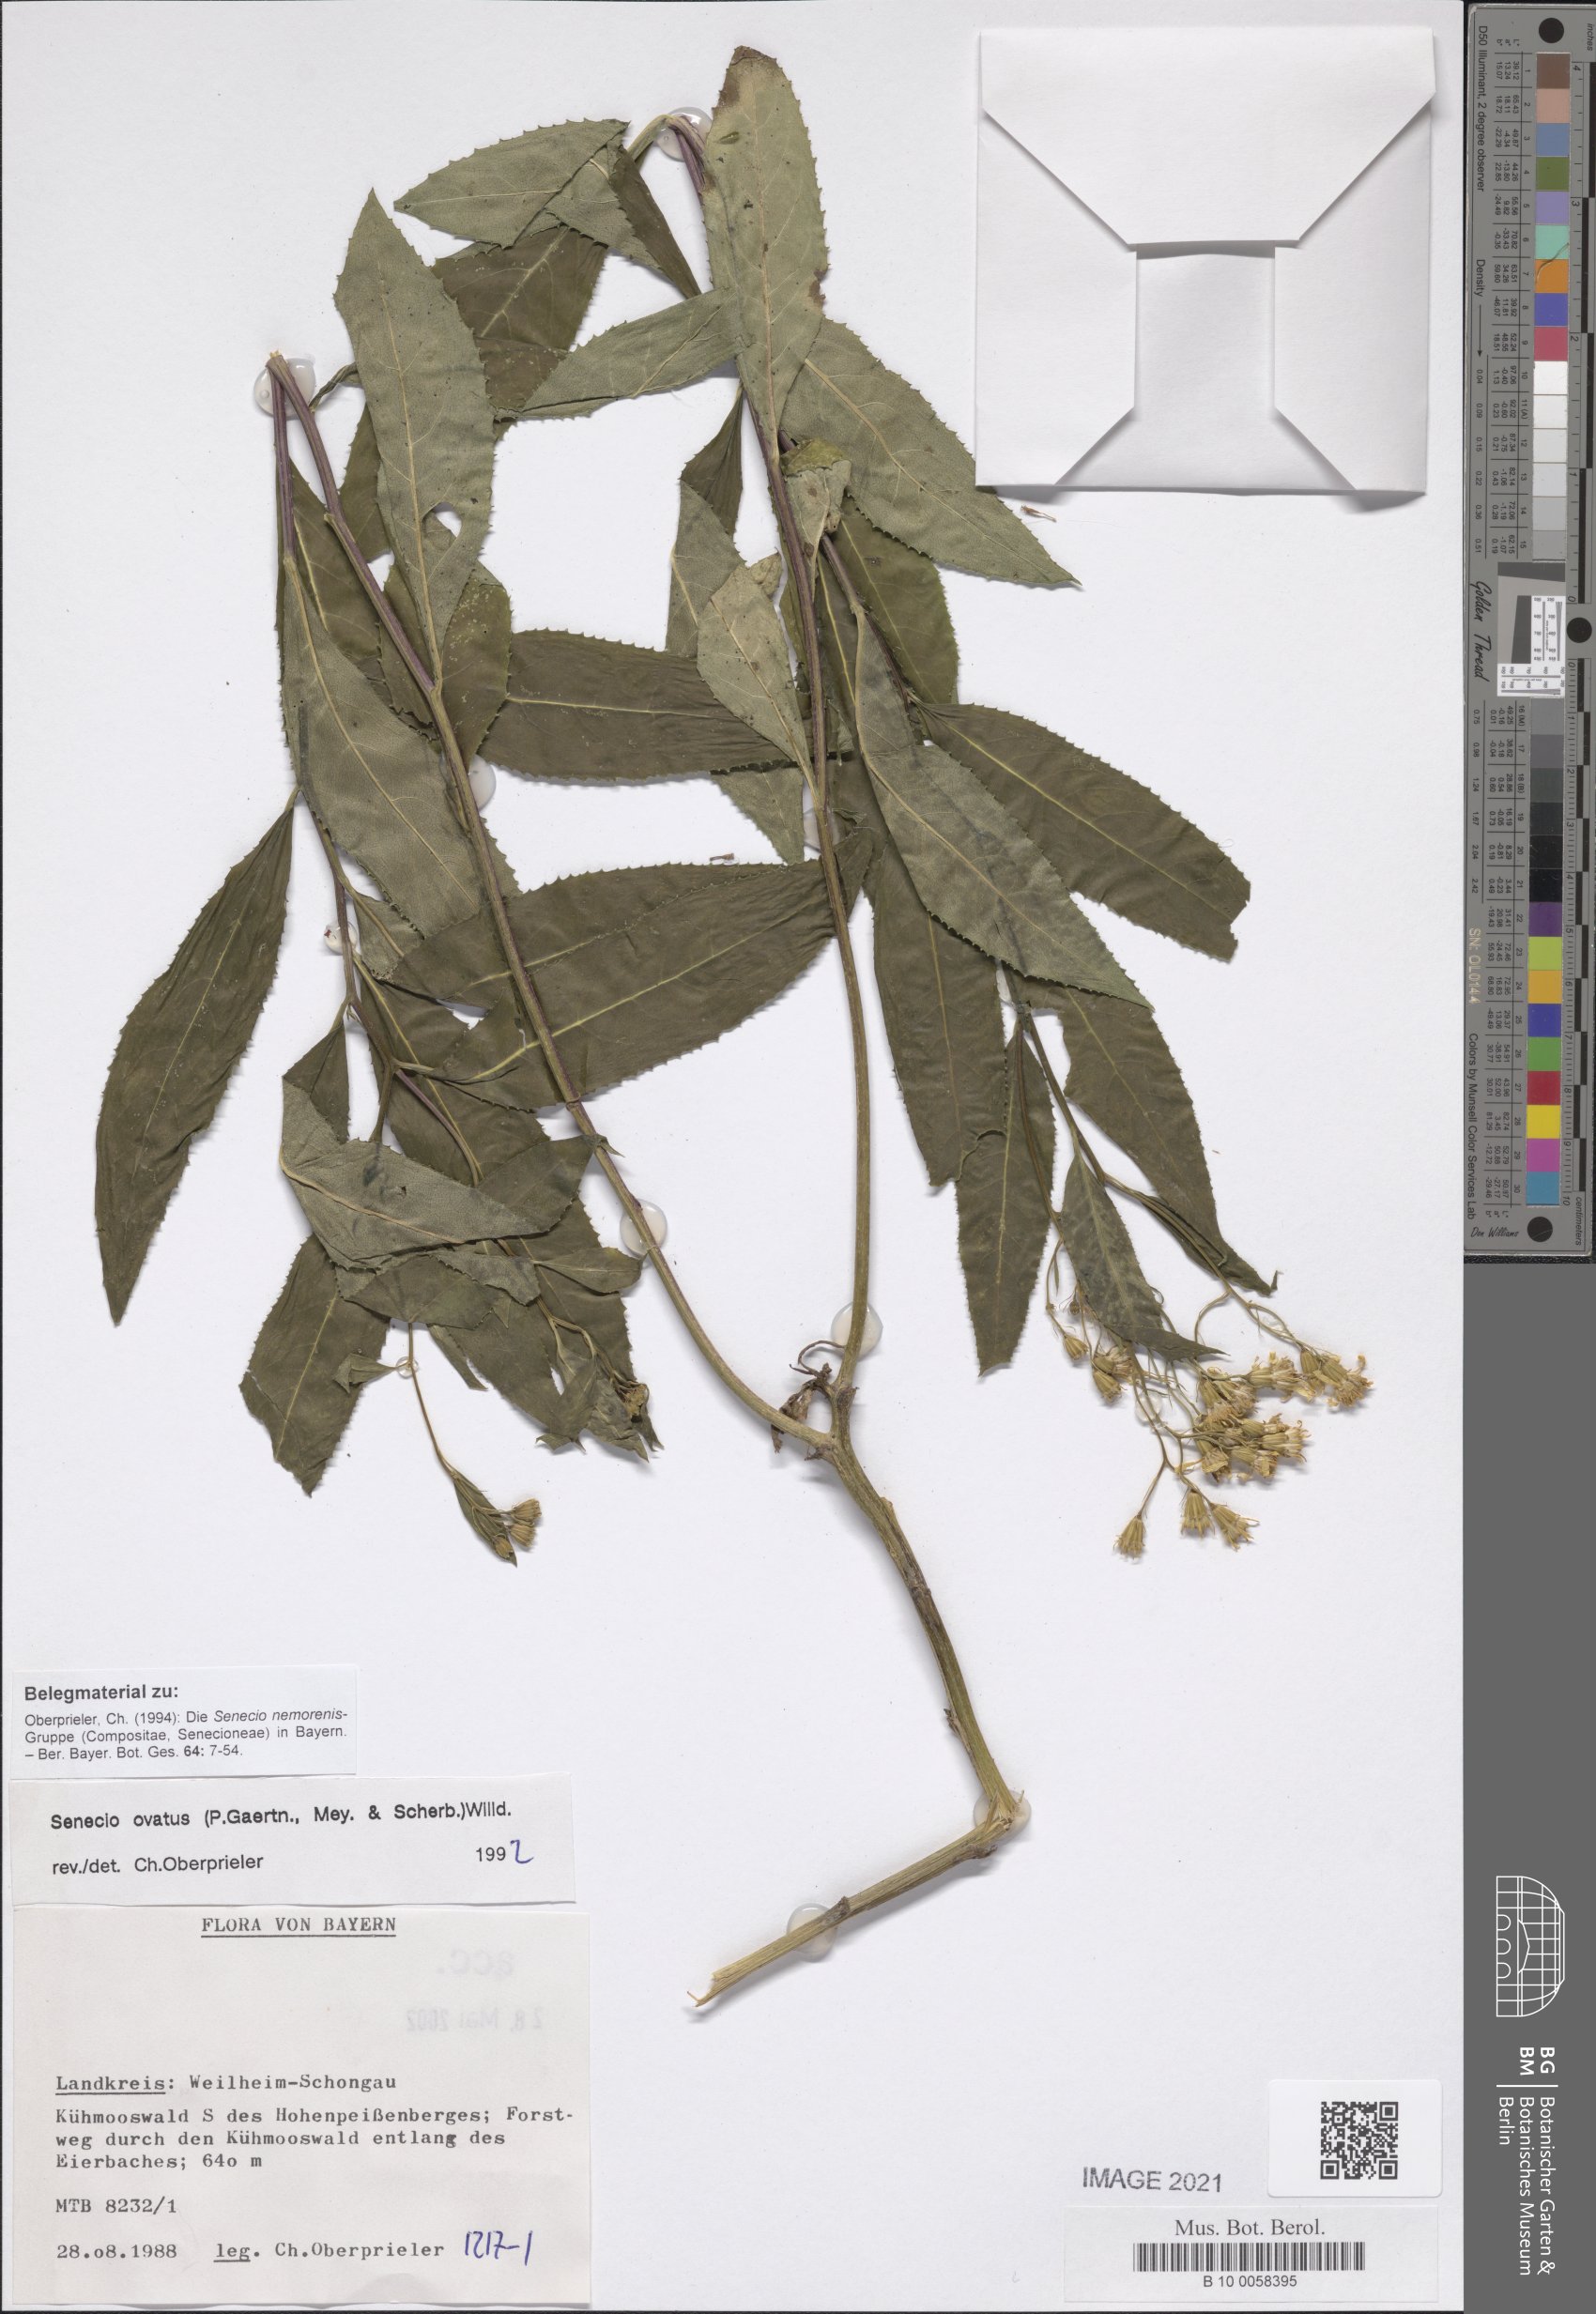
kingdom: Plantae
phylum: Tracheophyta
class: Magnoliopsida
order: Asterales
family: Asteraceae
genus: Senecio
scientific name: Senecio ovatus
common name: Wood ragwort
